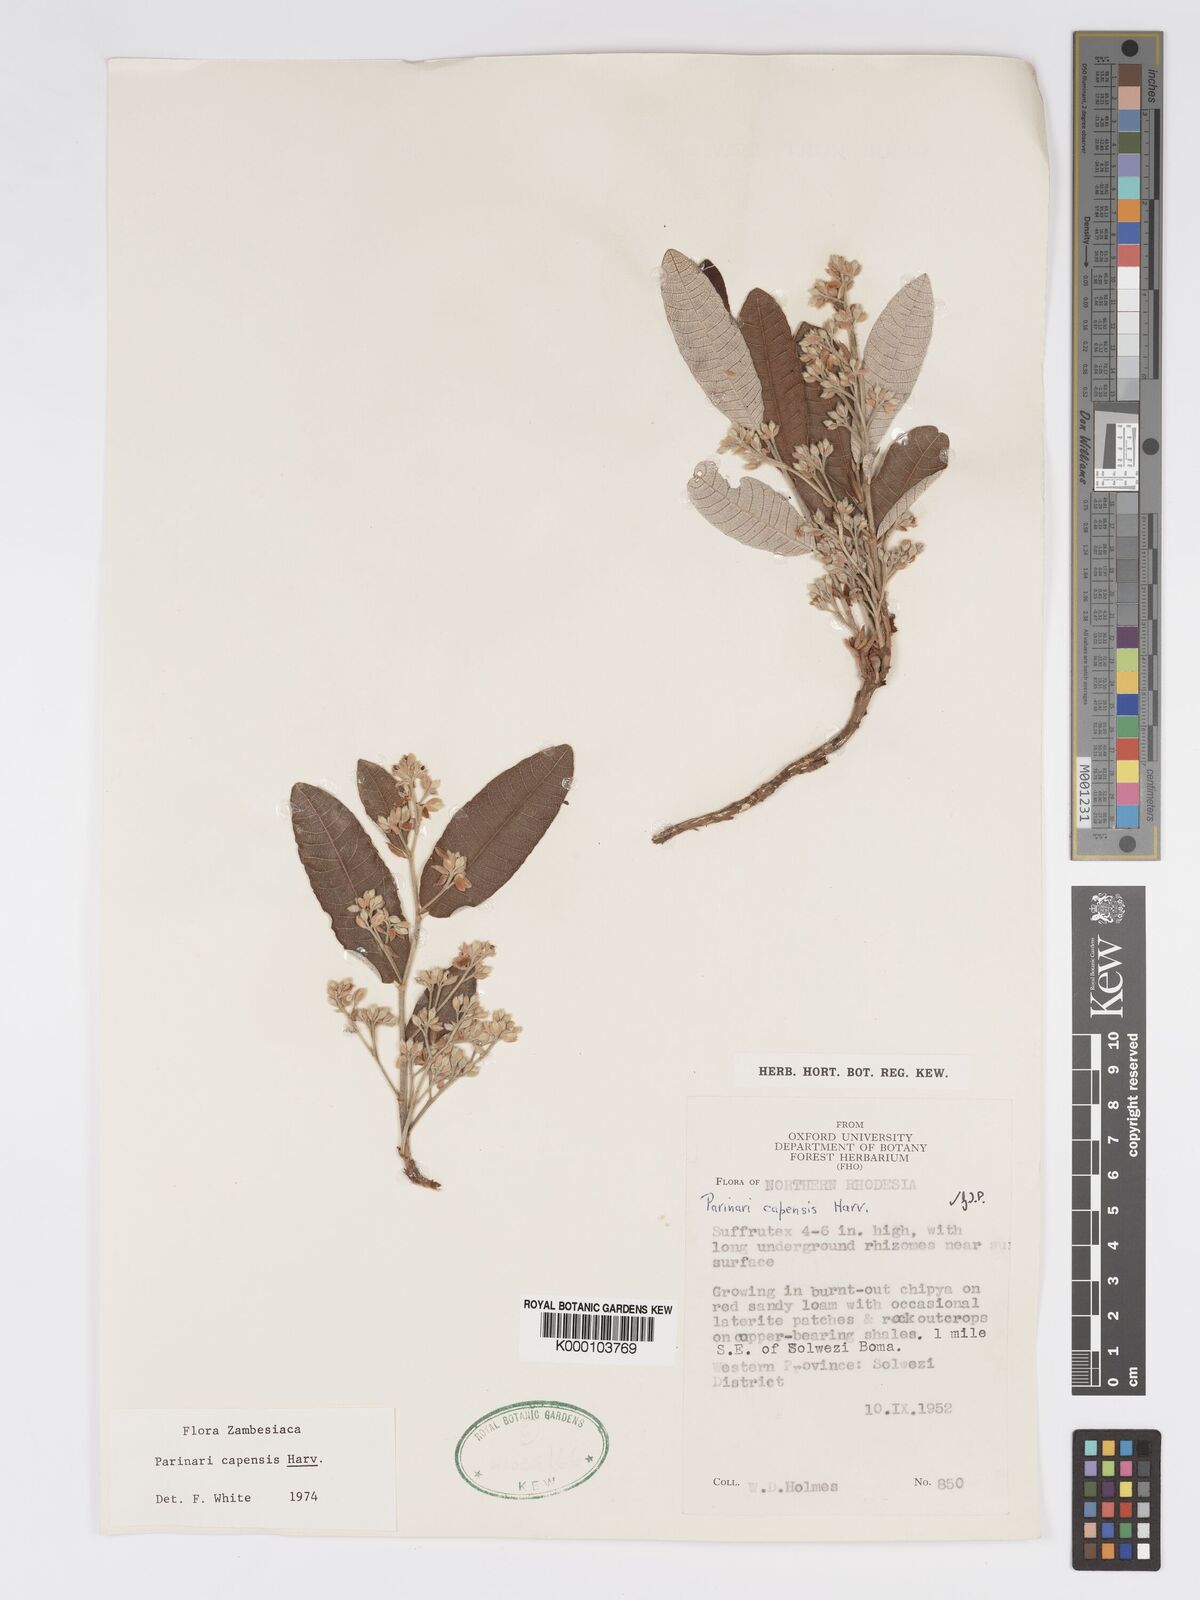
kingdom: Plantae
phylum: Tracheophyta
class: Magnoliopsida
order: Malpighiales
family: Chrysobalanaceae
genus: Parinari
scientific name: Parinari capensis
